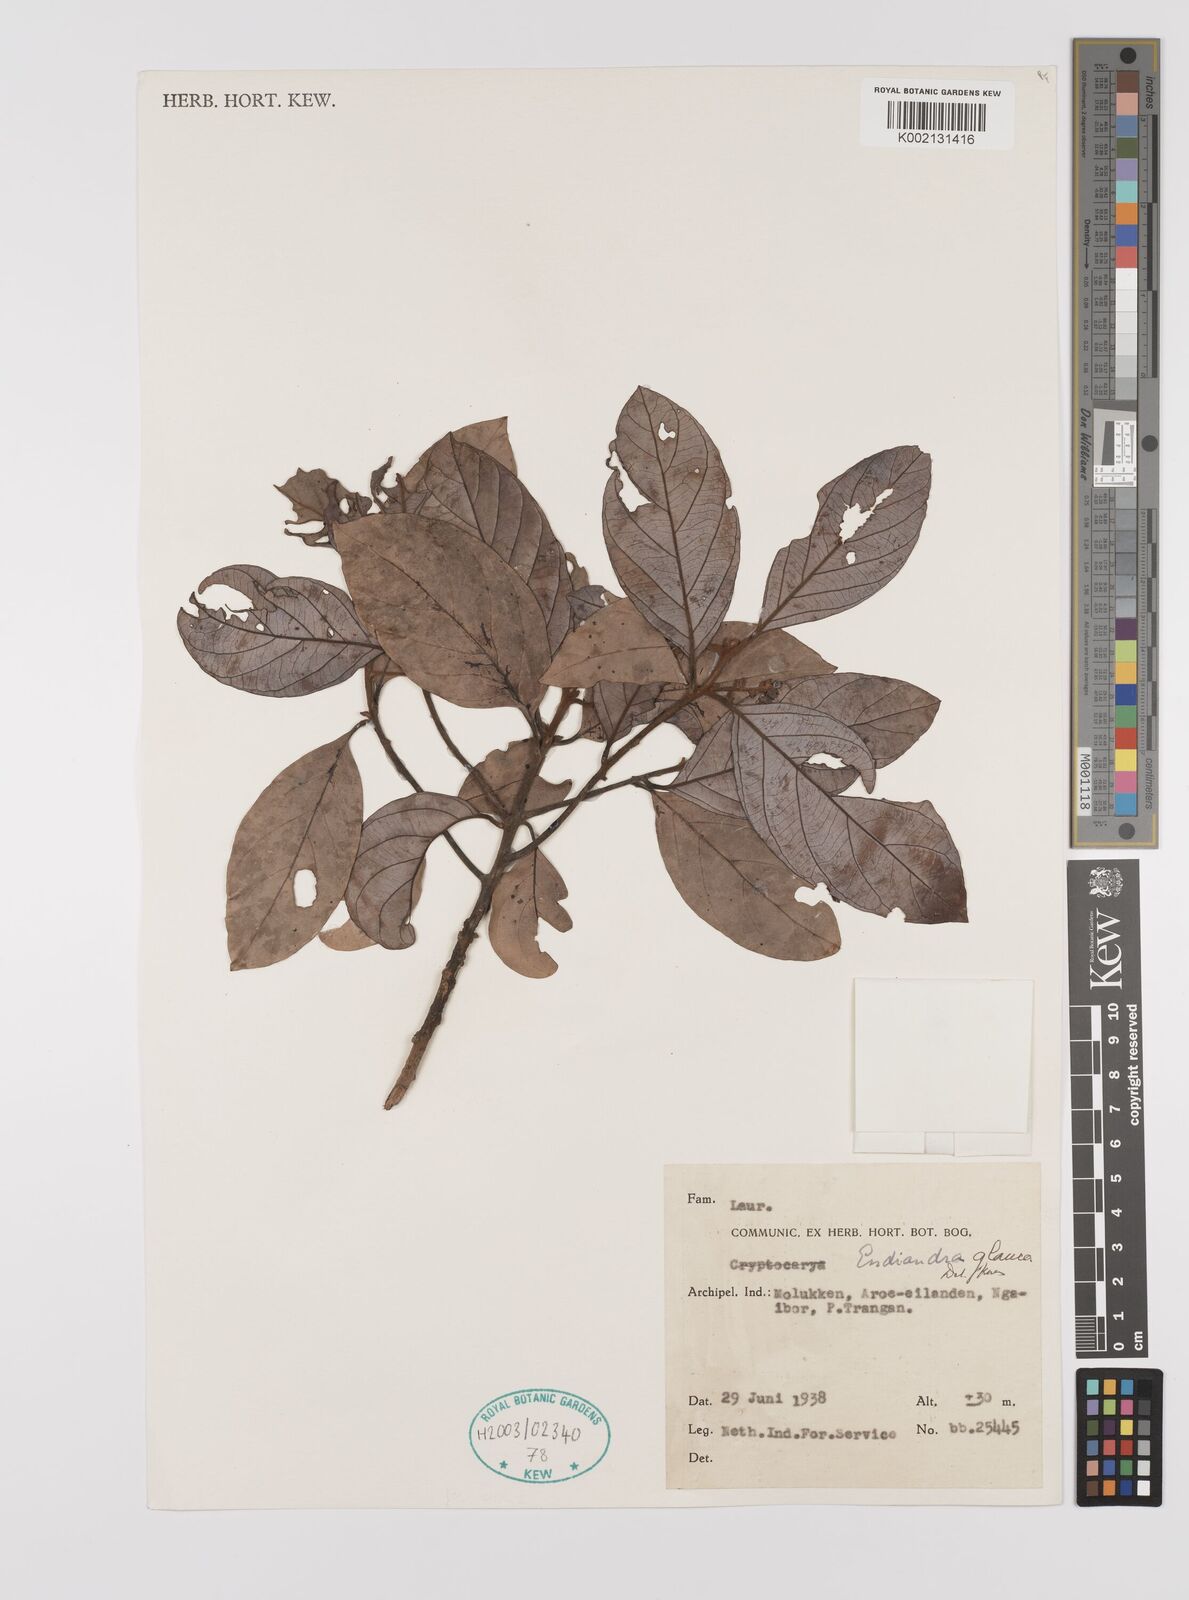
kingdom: Plantae
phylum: Tracheophyta
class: Magnoliopsida
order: Laurales
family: Lauraceae
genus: Endiandra
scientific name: Endiandra glauca
